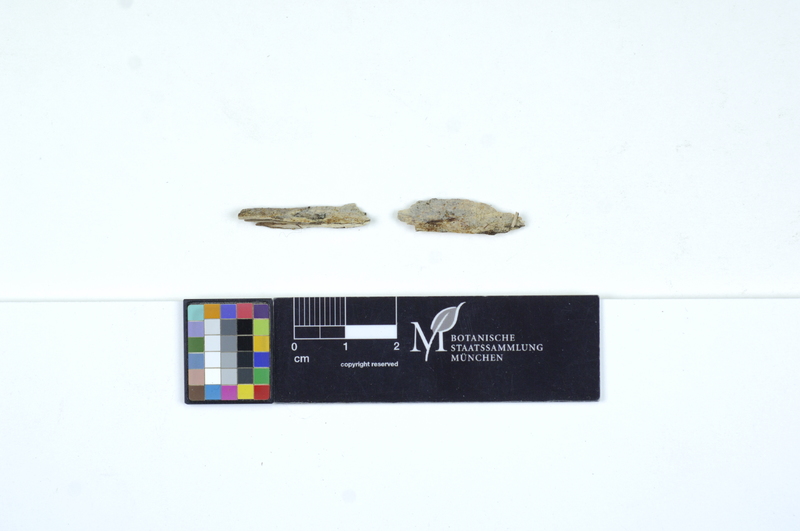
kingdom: Fungi
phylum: Basidiomycota
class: Agaricomycetes
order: Auriculariales
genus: Basidiodendron
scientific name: Basidiodendron cinereum
